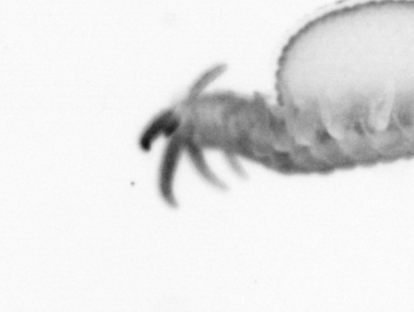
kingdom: Animalia
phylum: Annelida
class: Polychaeta
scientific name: Polychaeta
